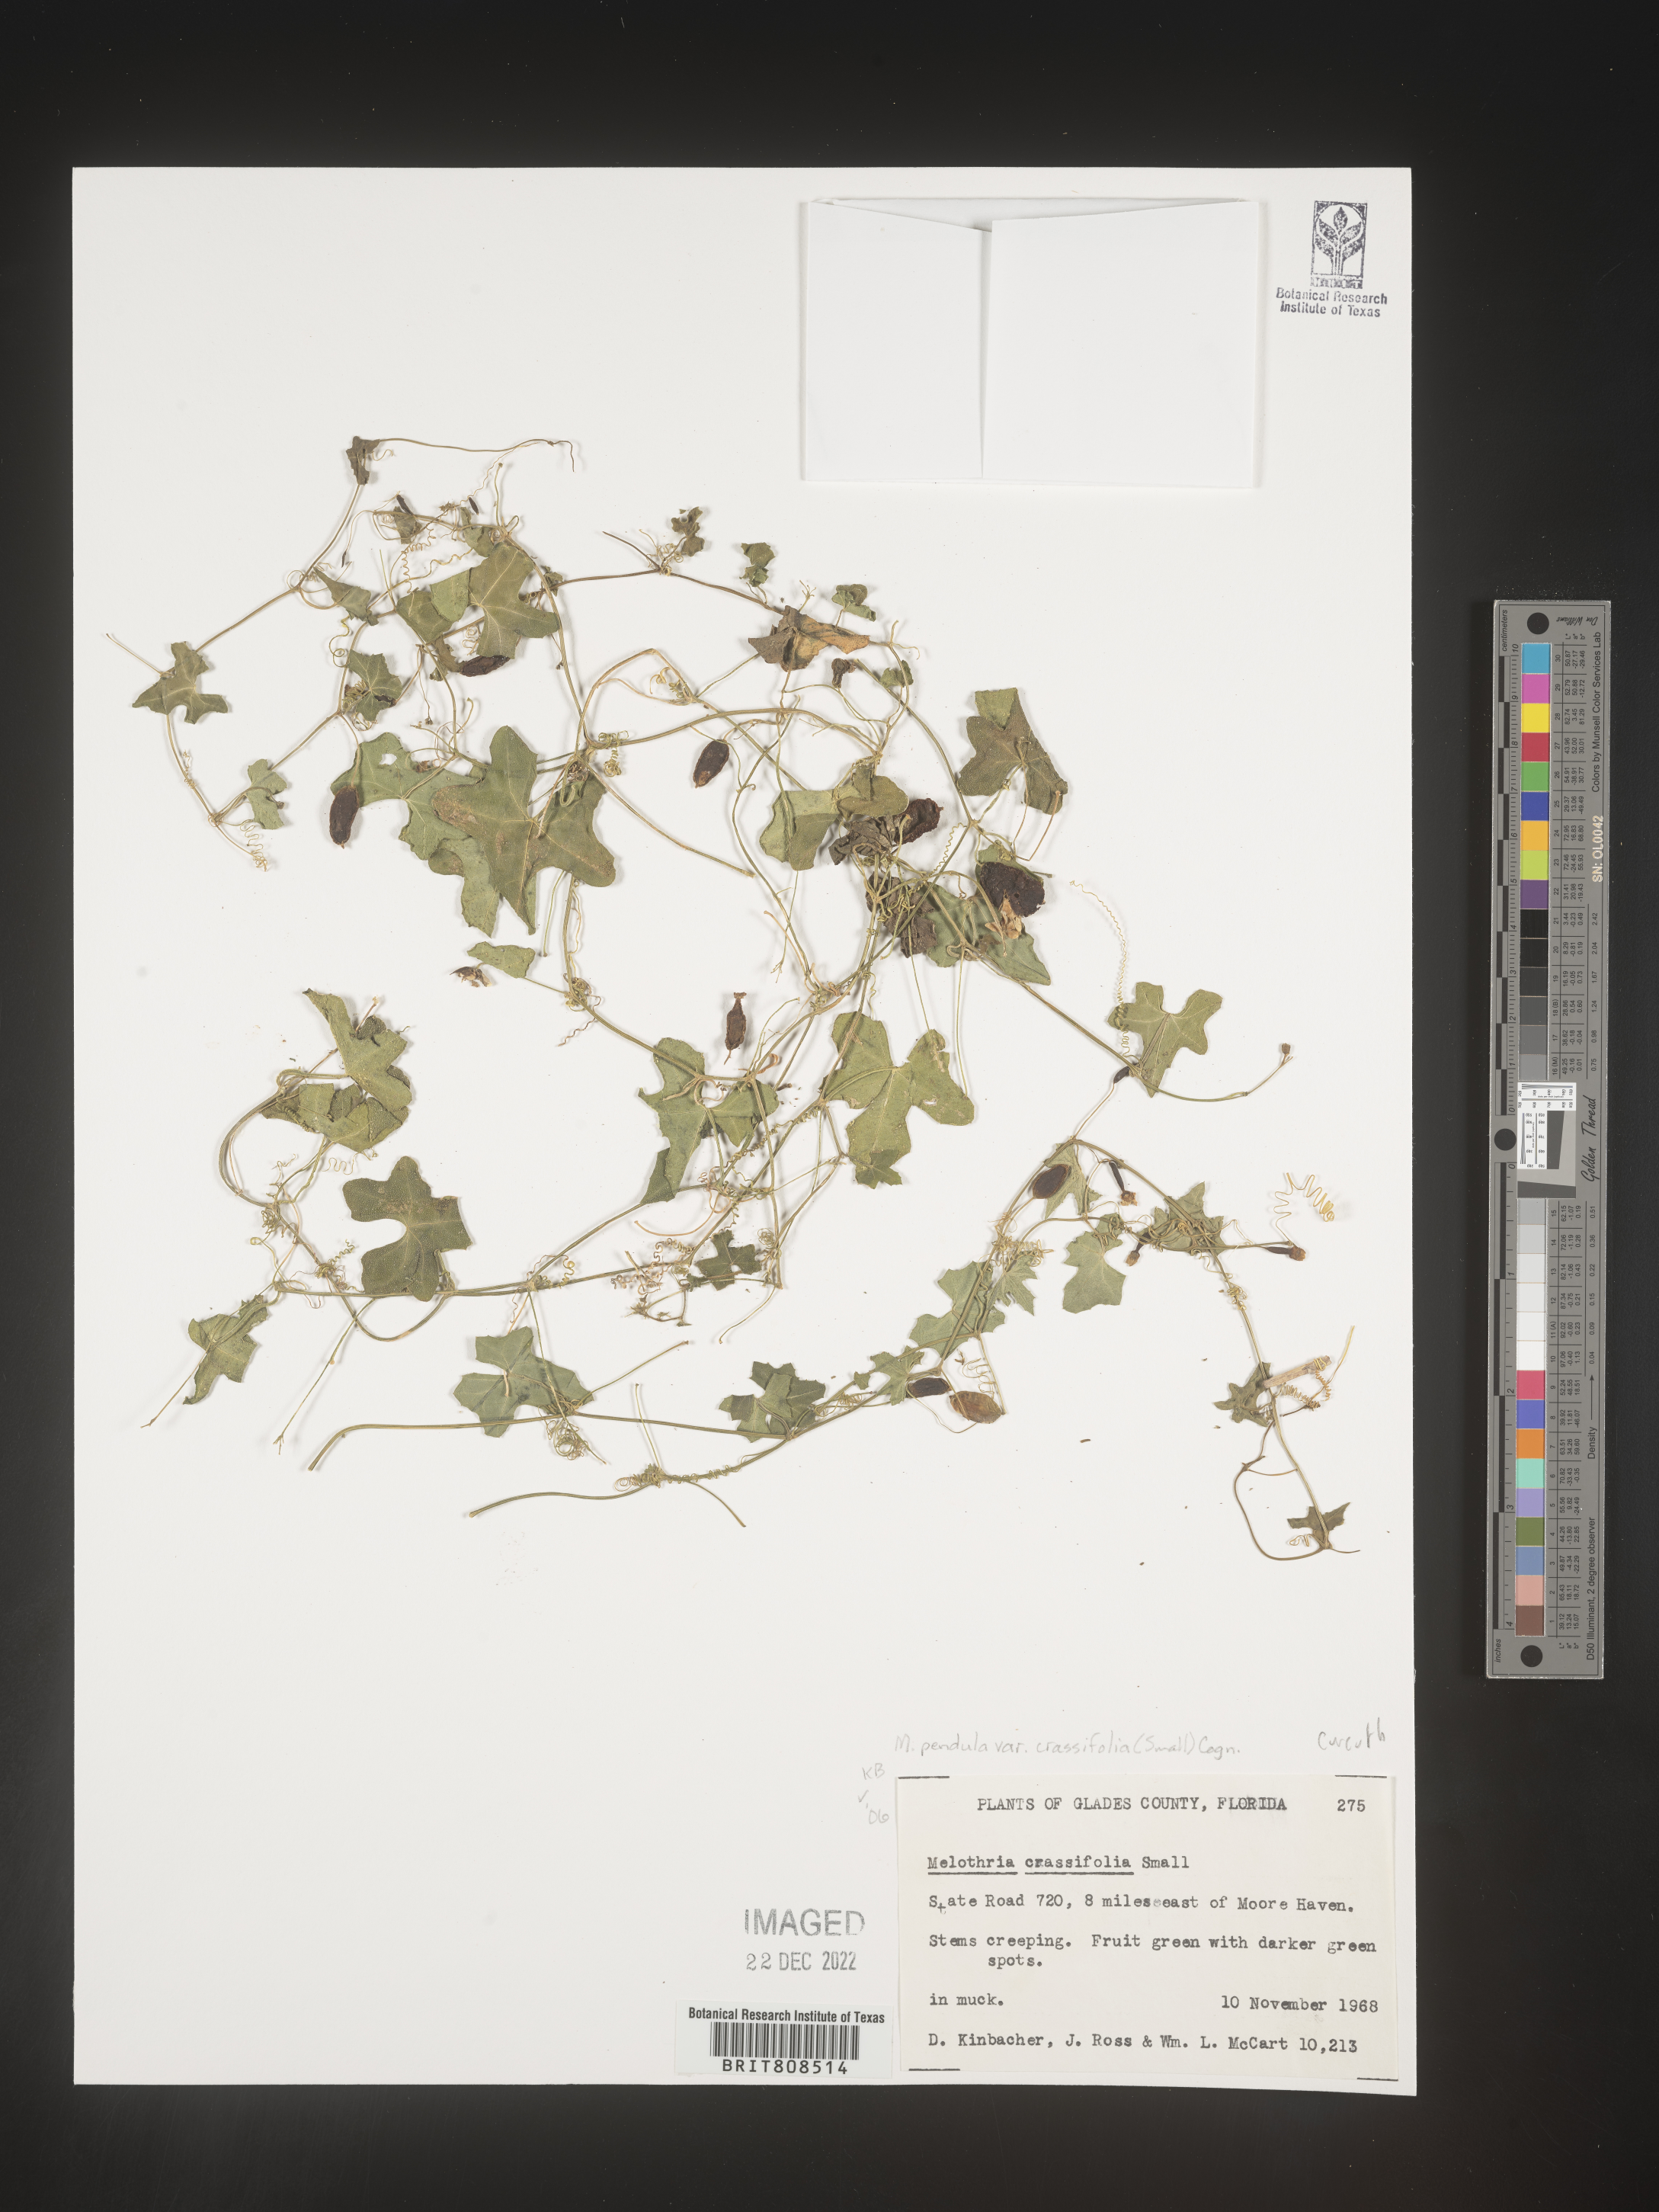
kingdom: Plantae
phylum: Tracheophyta
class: Magnoliopsida
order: Cucurbitales
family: Cucurbitaceae
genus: Melothria
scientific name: Melothria
